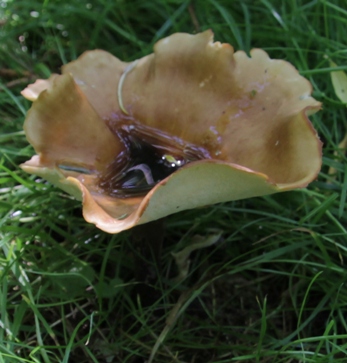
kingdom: Fungi
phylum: Basidiomycota
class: Agaricomycetes
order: Polyporales
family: Polyporaceae
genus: Cerioporus
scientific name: Cerioporus varius
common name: foranderlig stilkporesvamp
